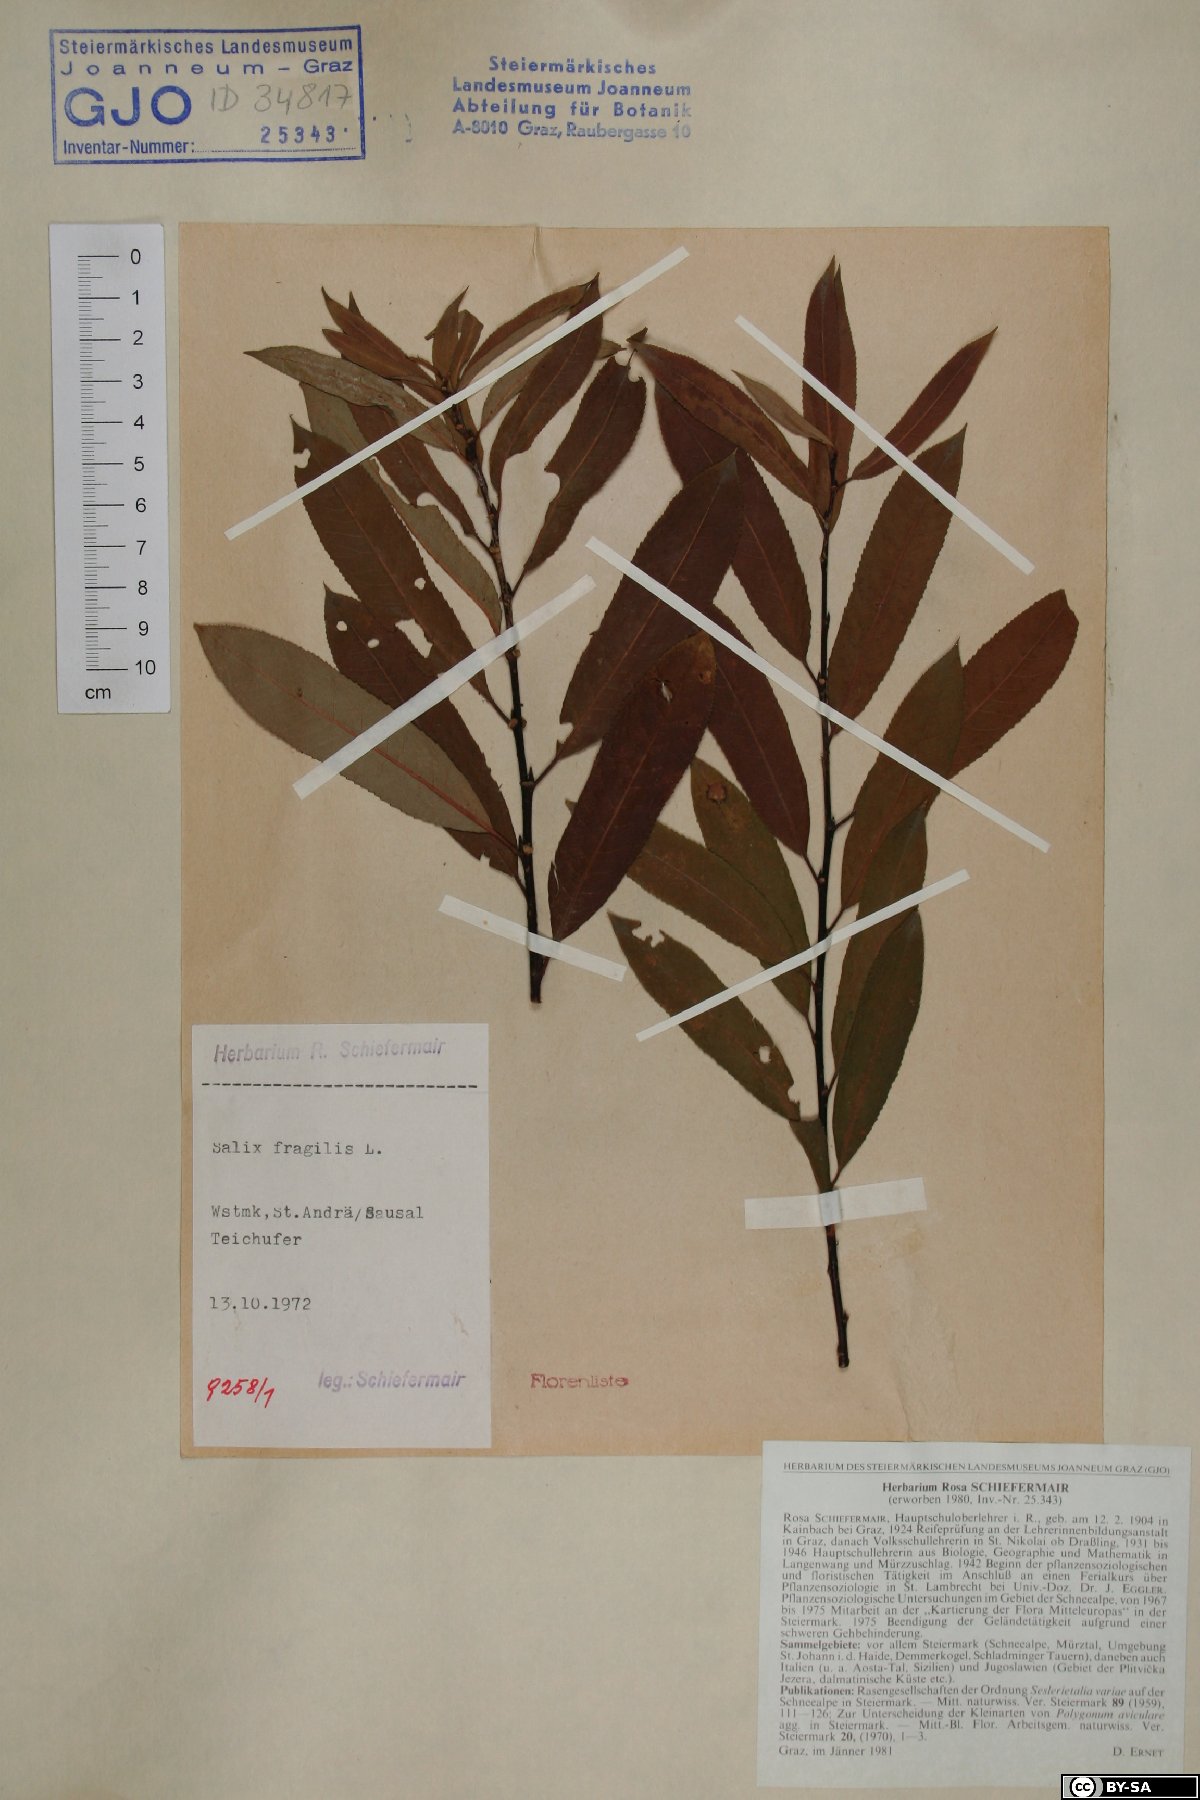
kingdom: Plantae
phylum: Tracheophyta
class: Magnoliopsida
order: Malpighiales
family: Salicaceae
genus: Salix
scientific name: Salix fragilis
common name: Crack willow
